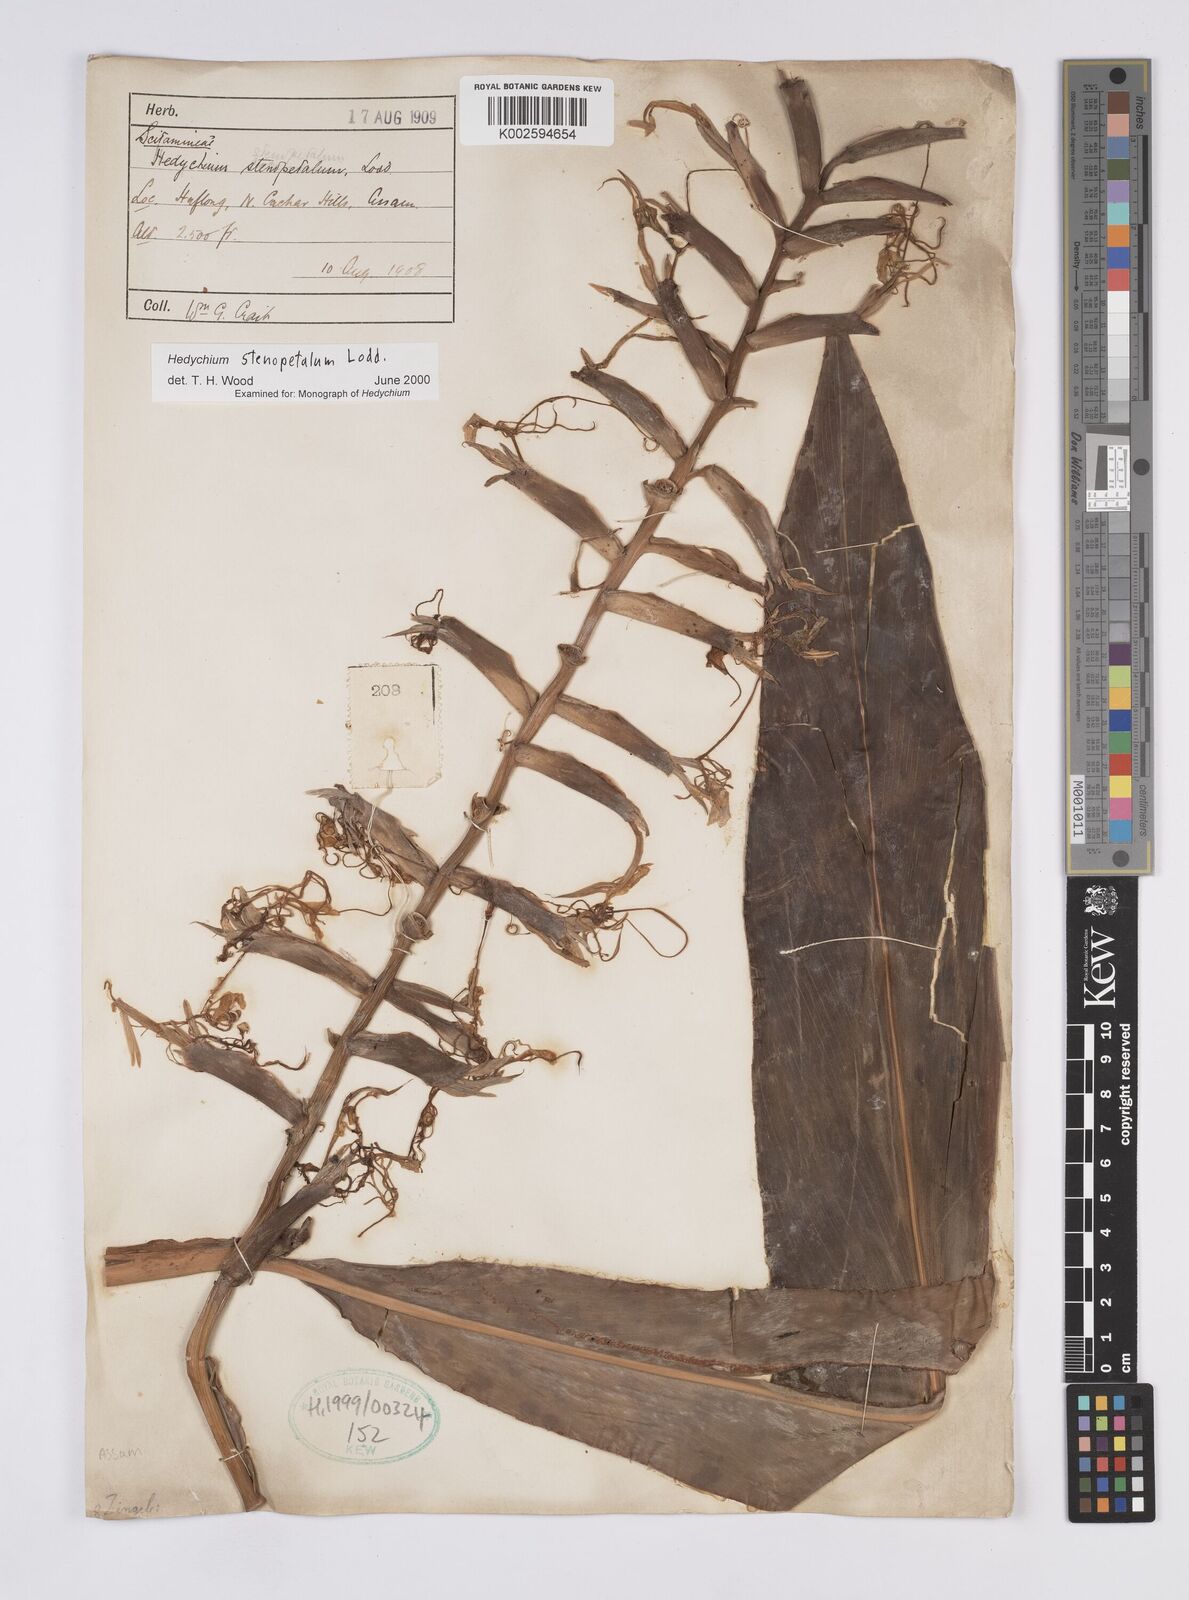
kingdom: Plantae
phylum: Tracheophyta
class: Liliopsida
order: Zingiberales
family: Zingiberaceae
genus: Hedychium
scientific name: Hedychium stenopetalum
